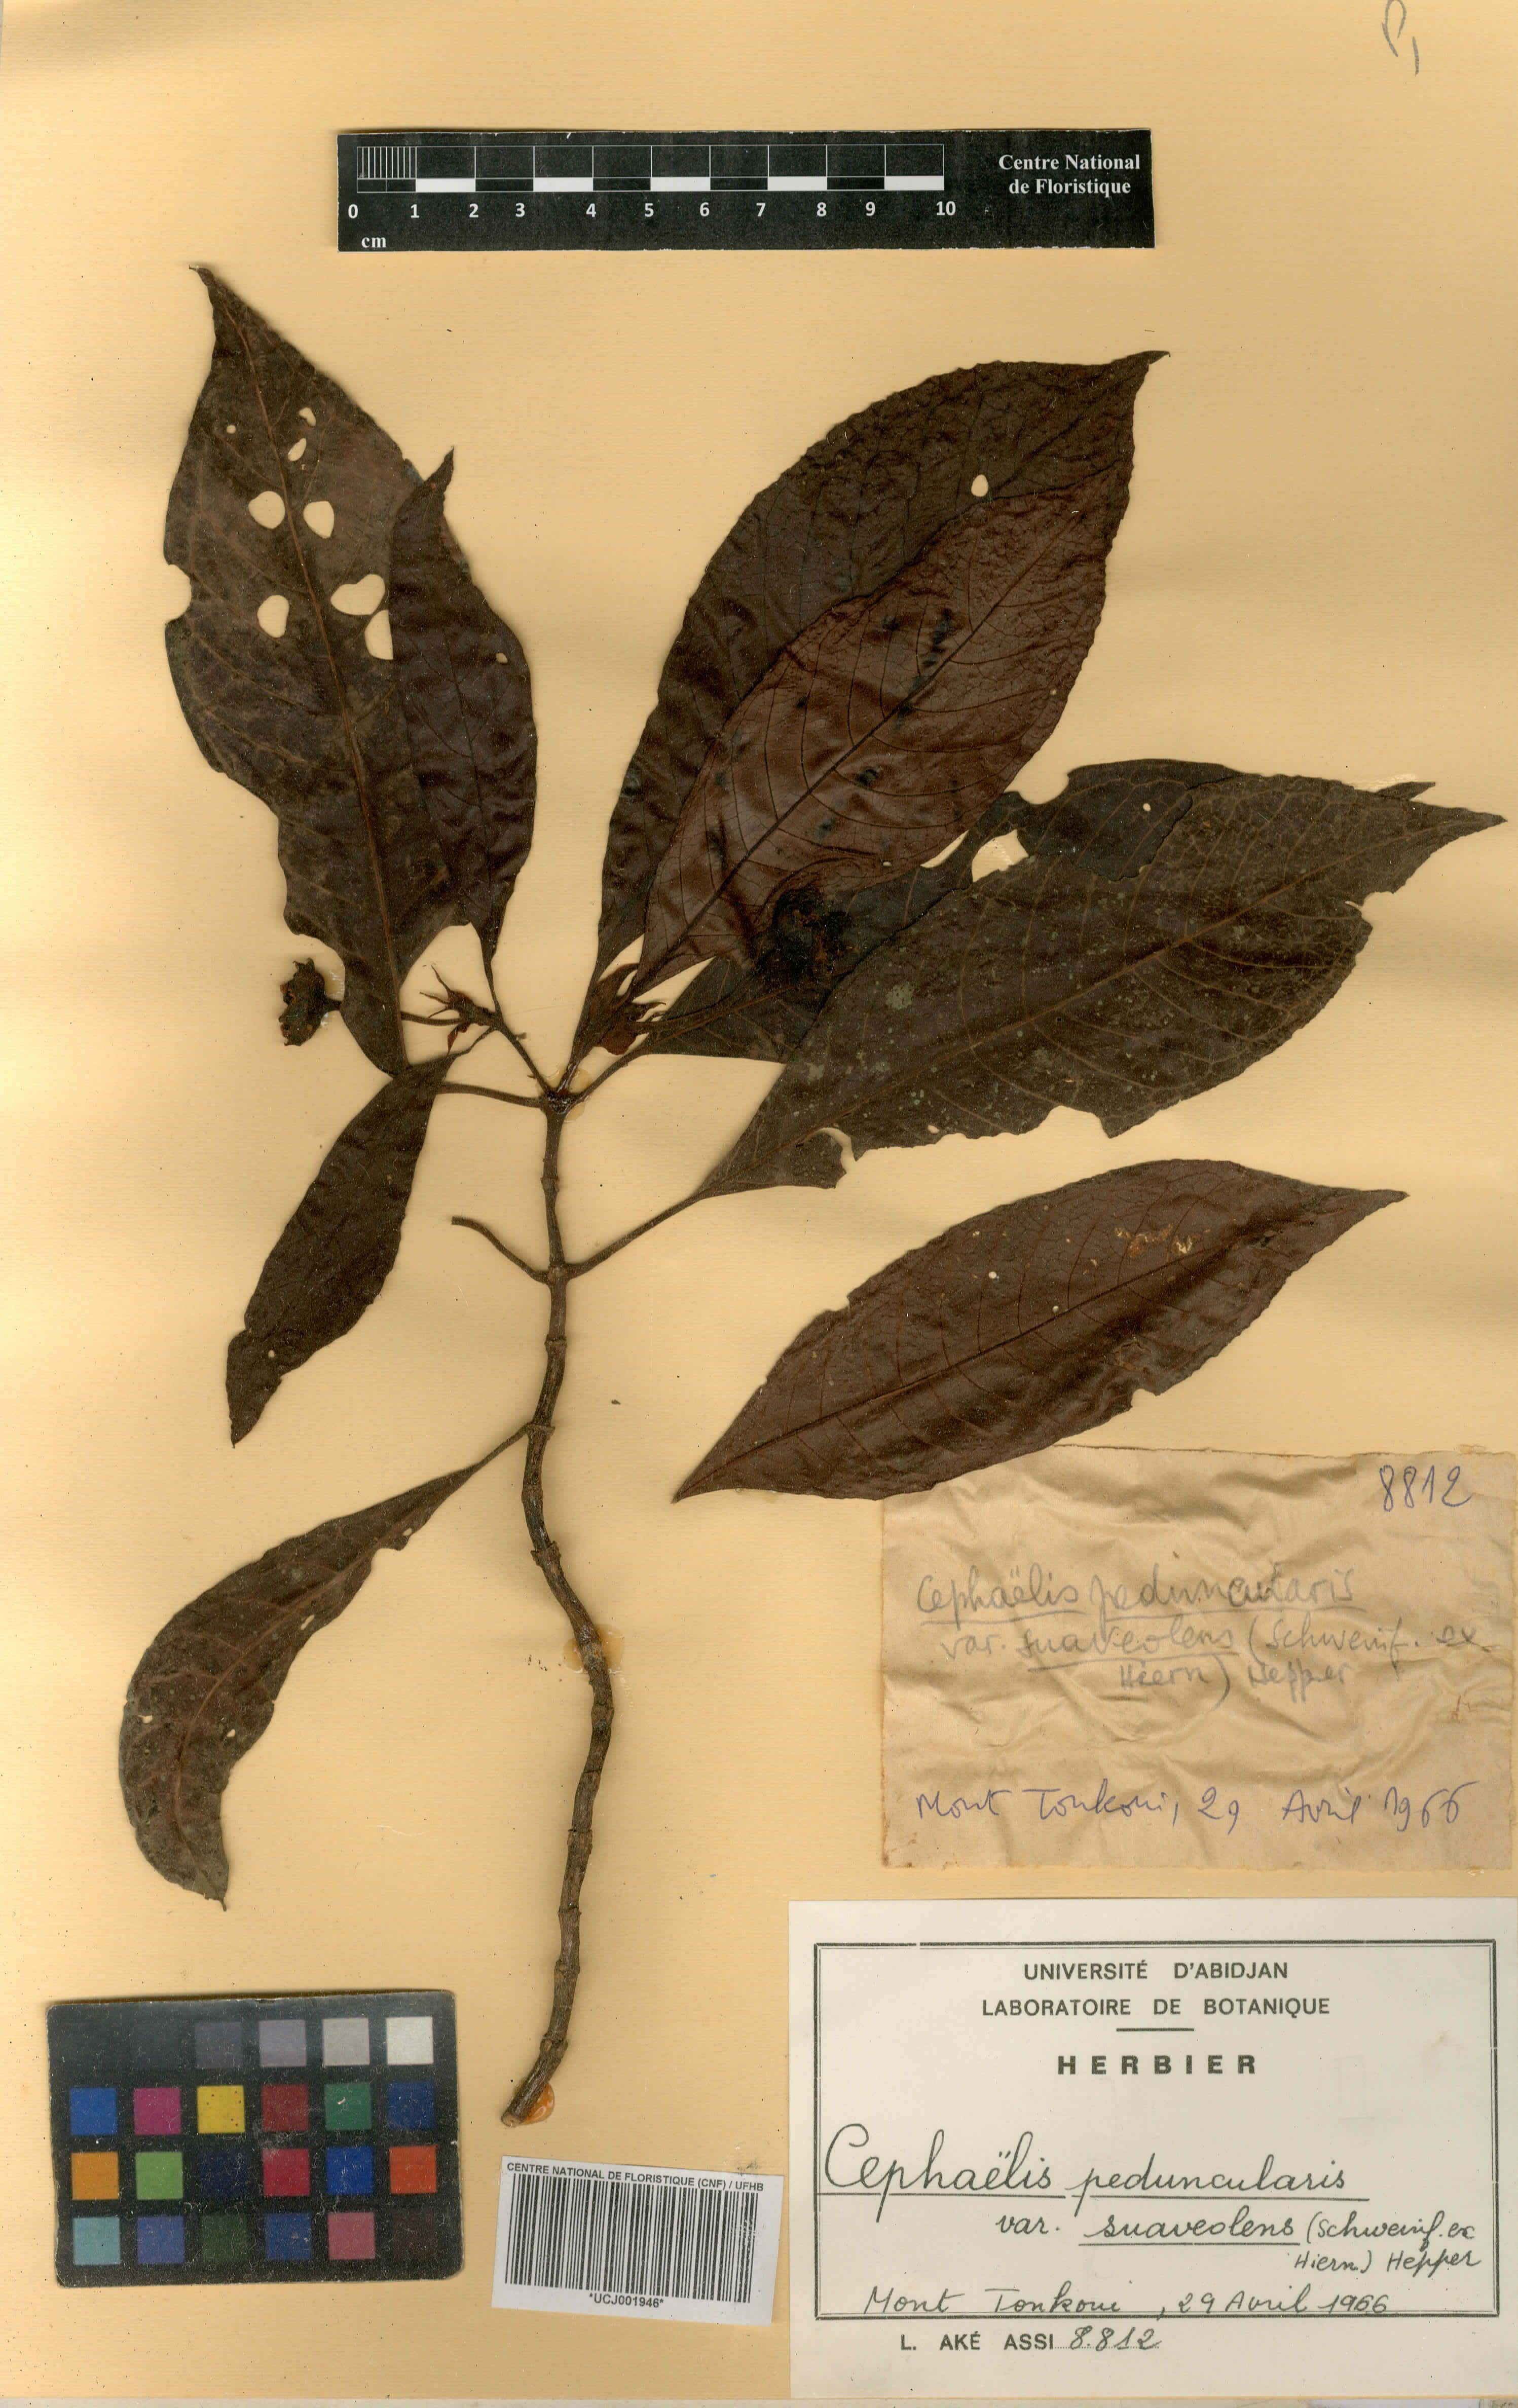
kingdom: Plantae
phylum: Tracheophyta
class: Magnoliopsida
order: Gentianales
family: Rubiaceae
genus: Psychotria
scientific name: Psychotria peduncularis
